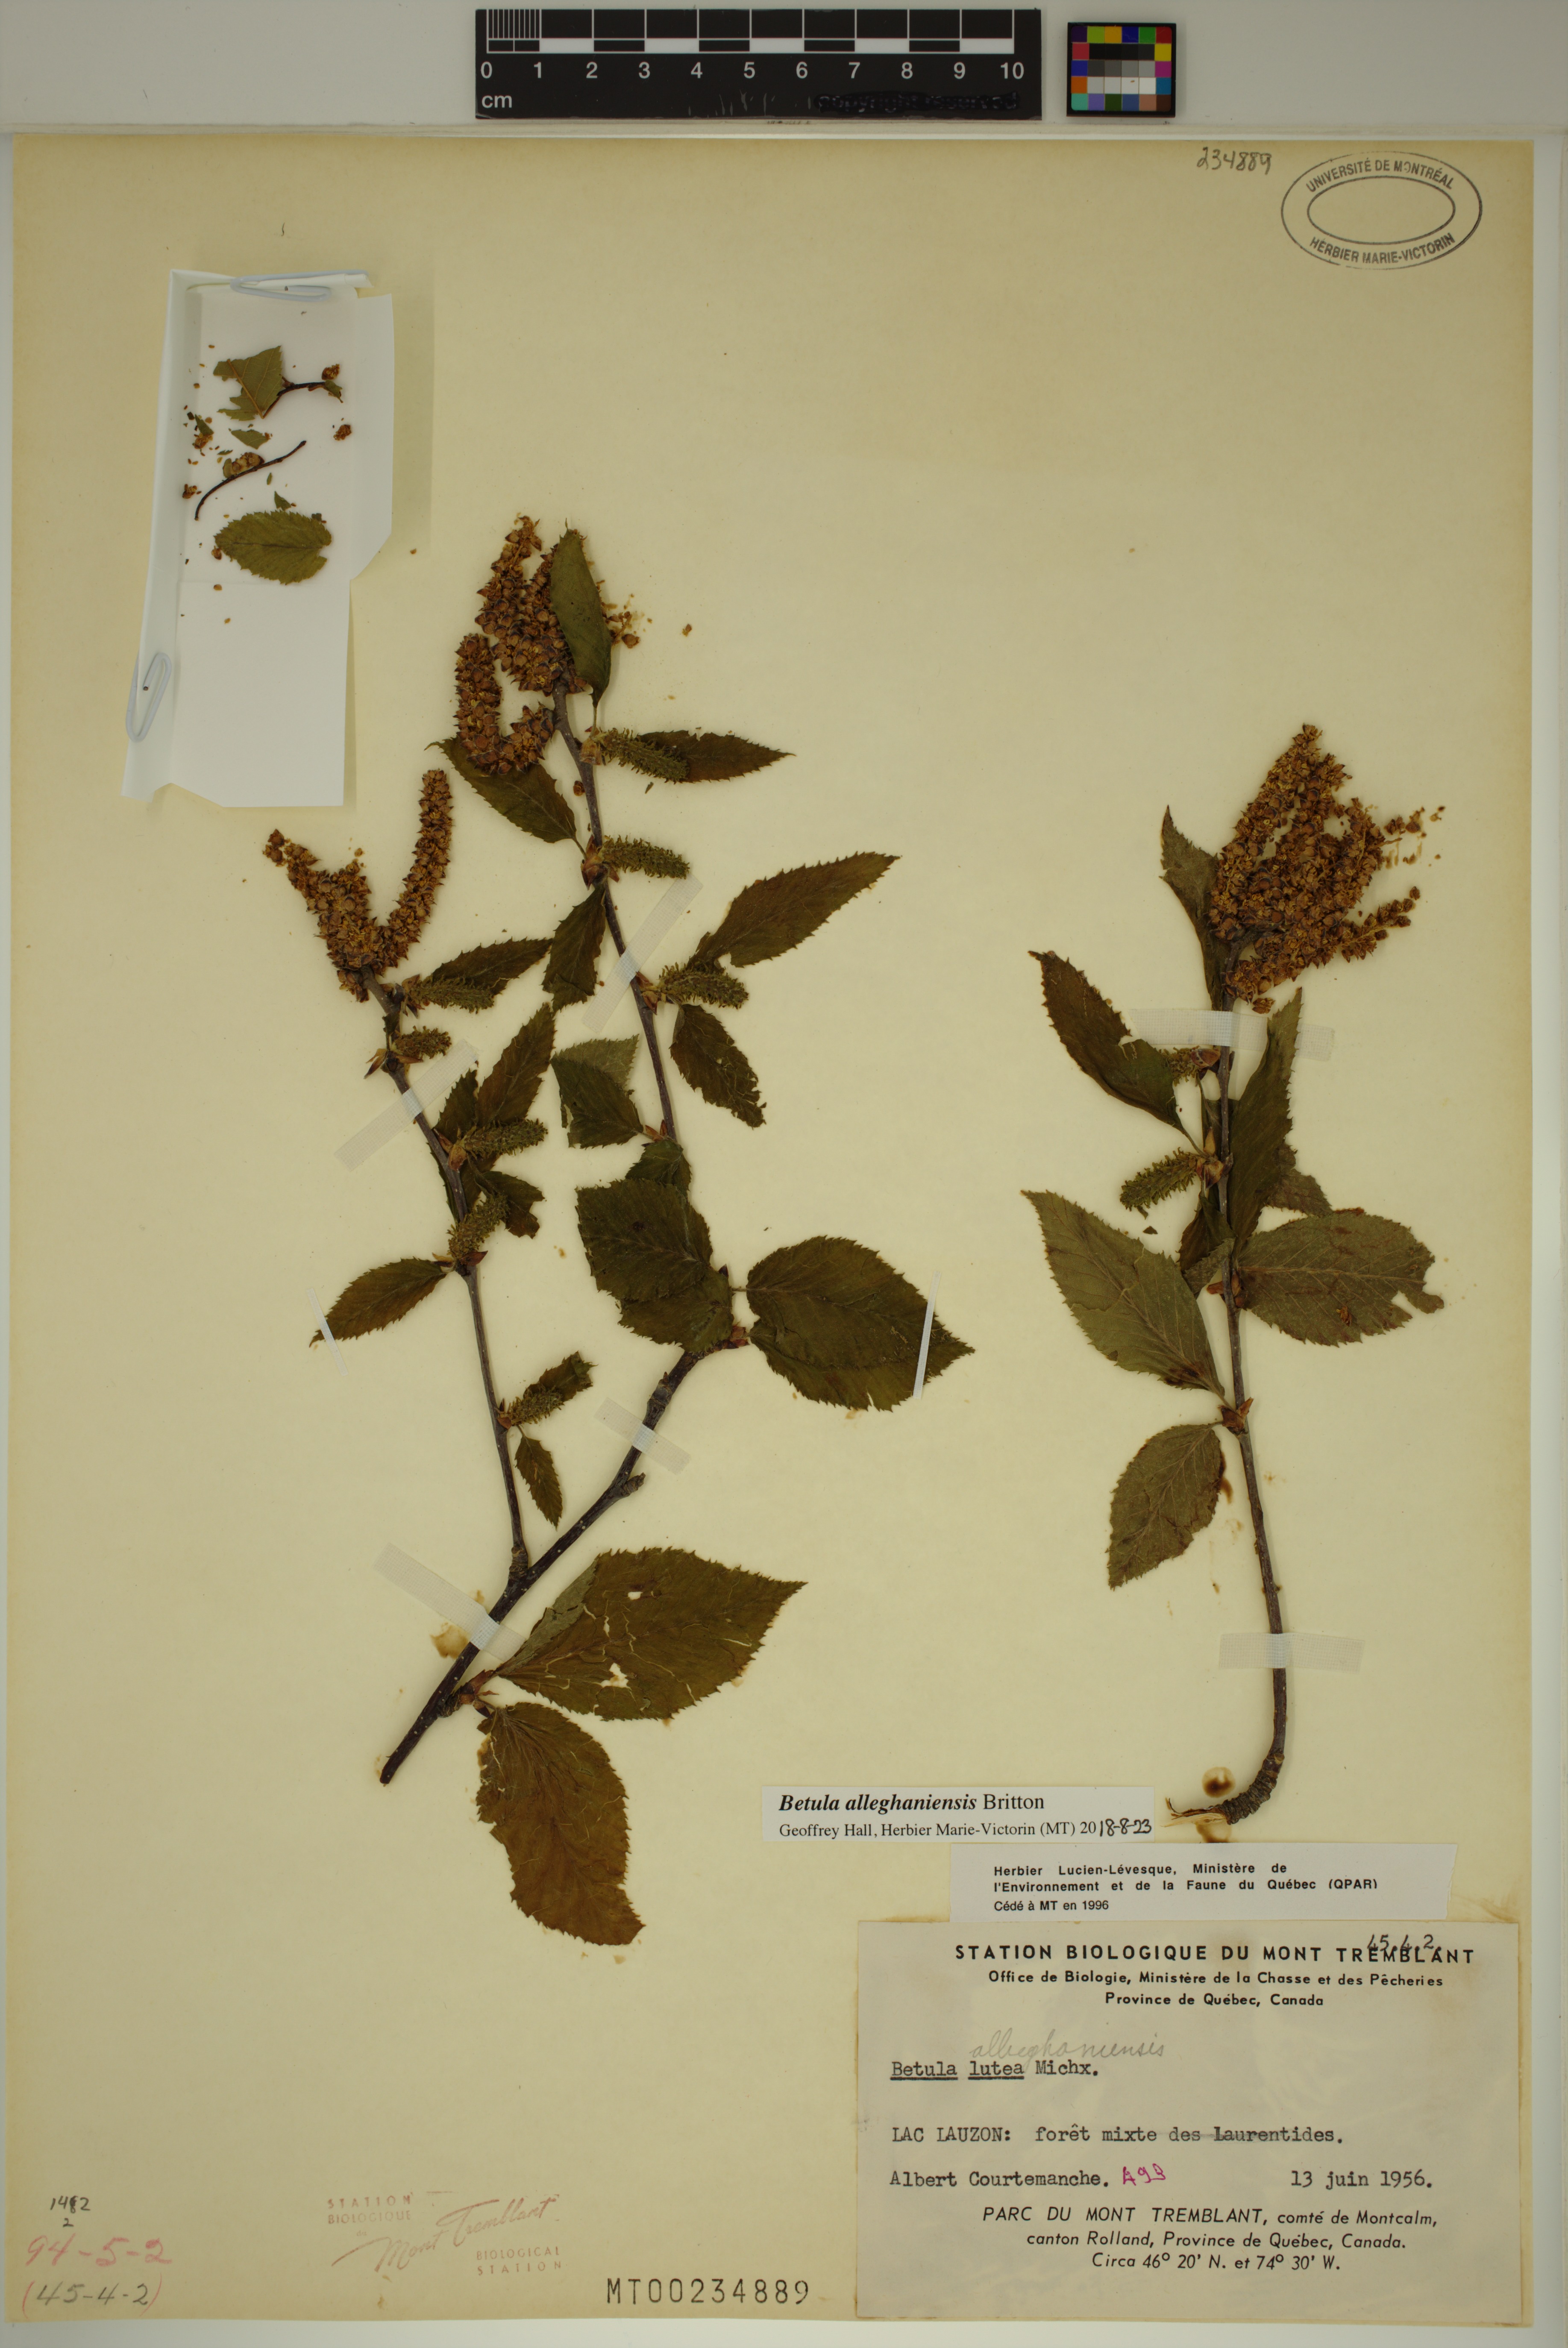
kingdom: Plantae
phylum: Tracheophyta
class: Magnoliopsida
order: Fagales
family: Betulaceae
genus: Betula
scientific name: Betula alleghaniensis
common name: Yellow birch
